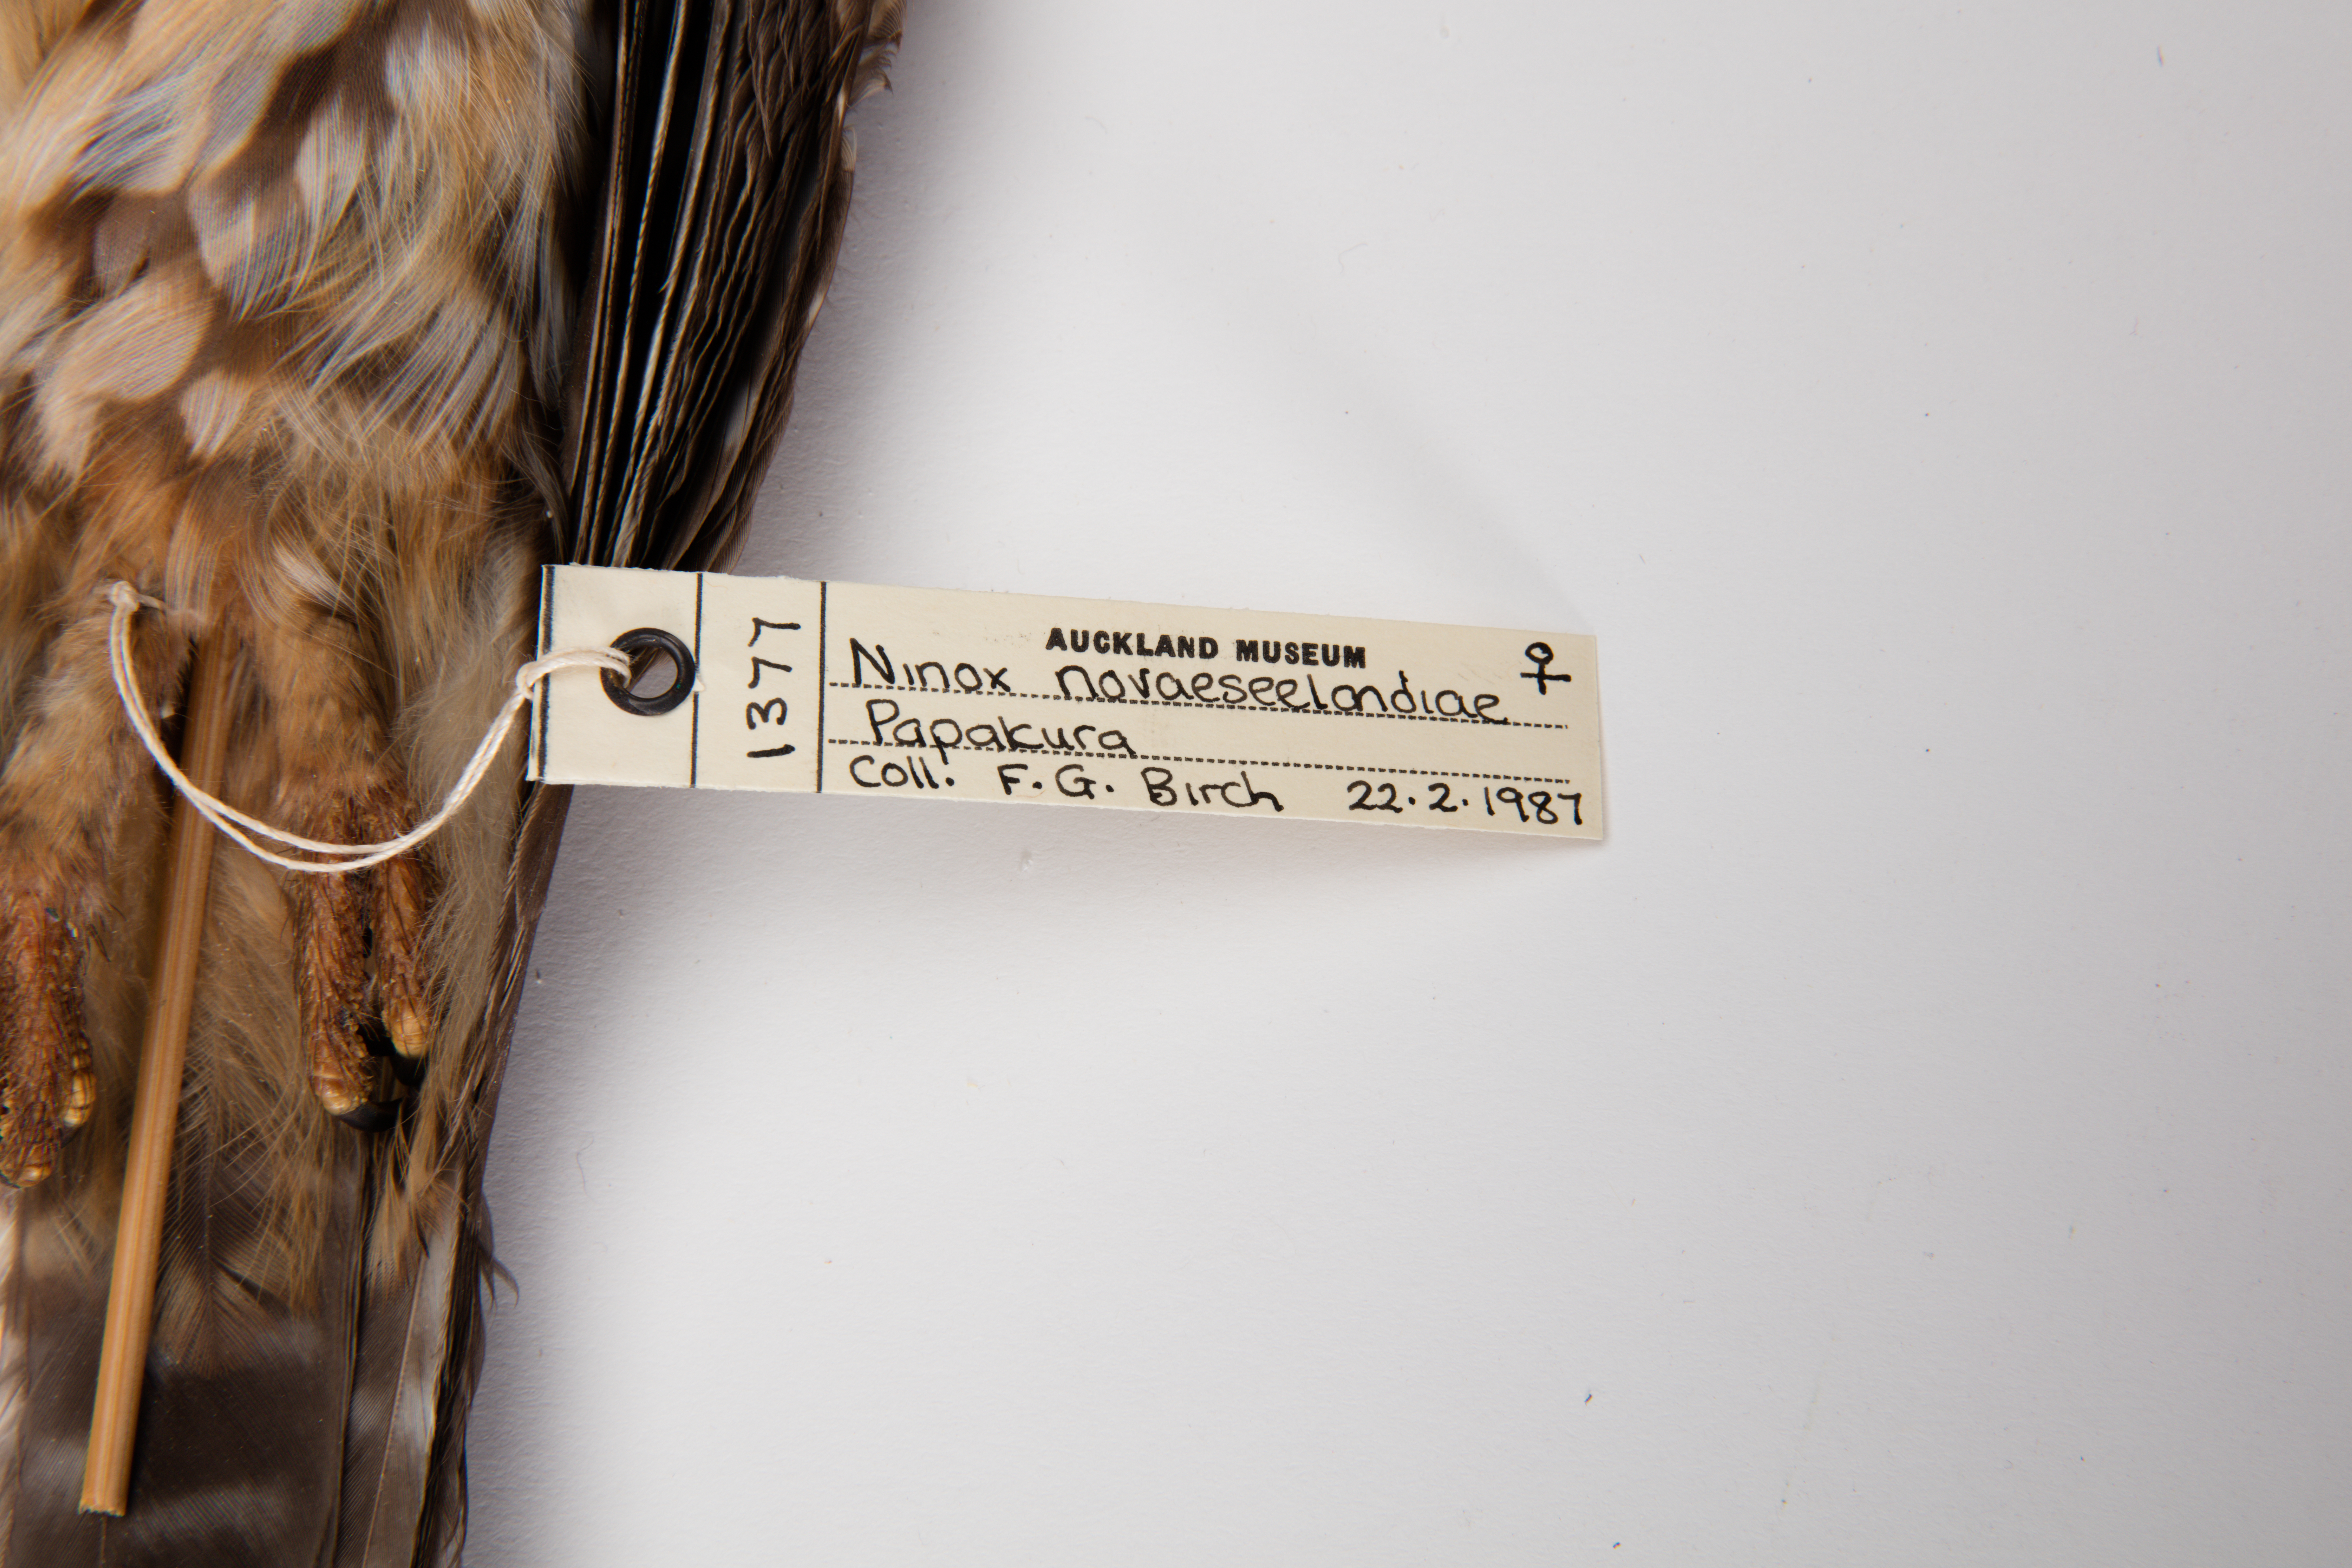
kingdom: Animalia
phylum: Chordata
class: Aves
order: Strigiformes
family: Strigidae
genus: Ninox
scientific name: Ninox novaeseelandiae
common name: Morepork
